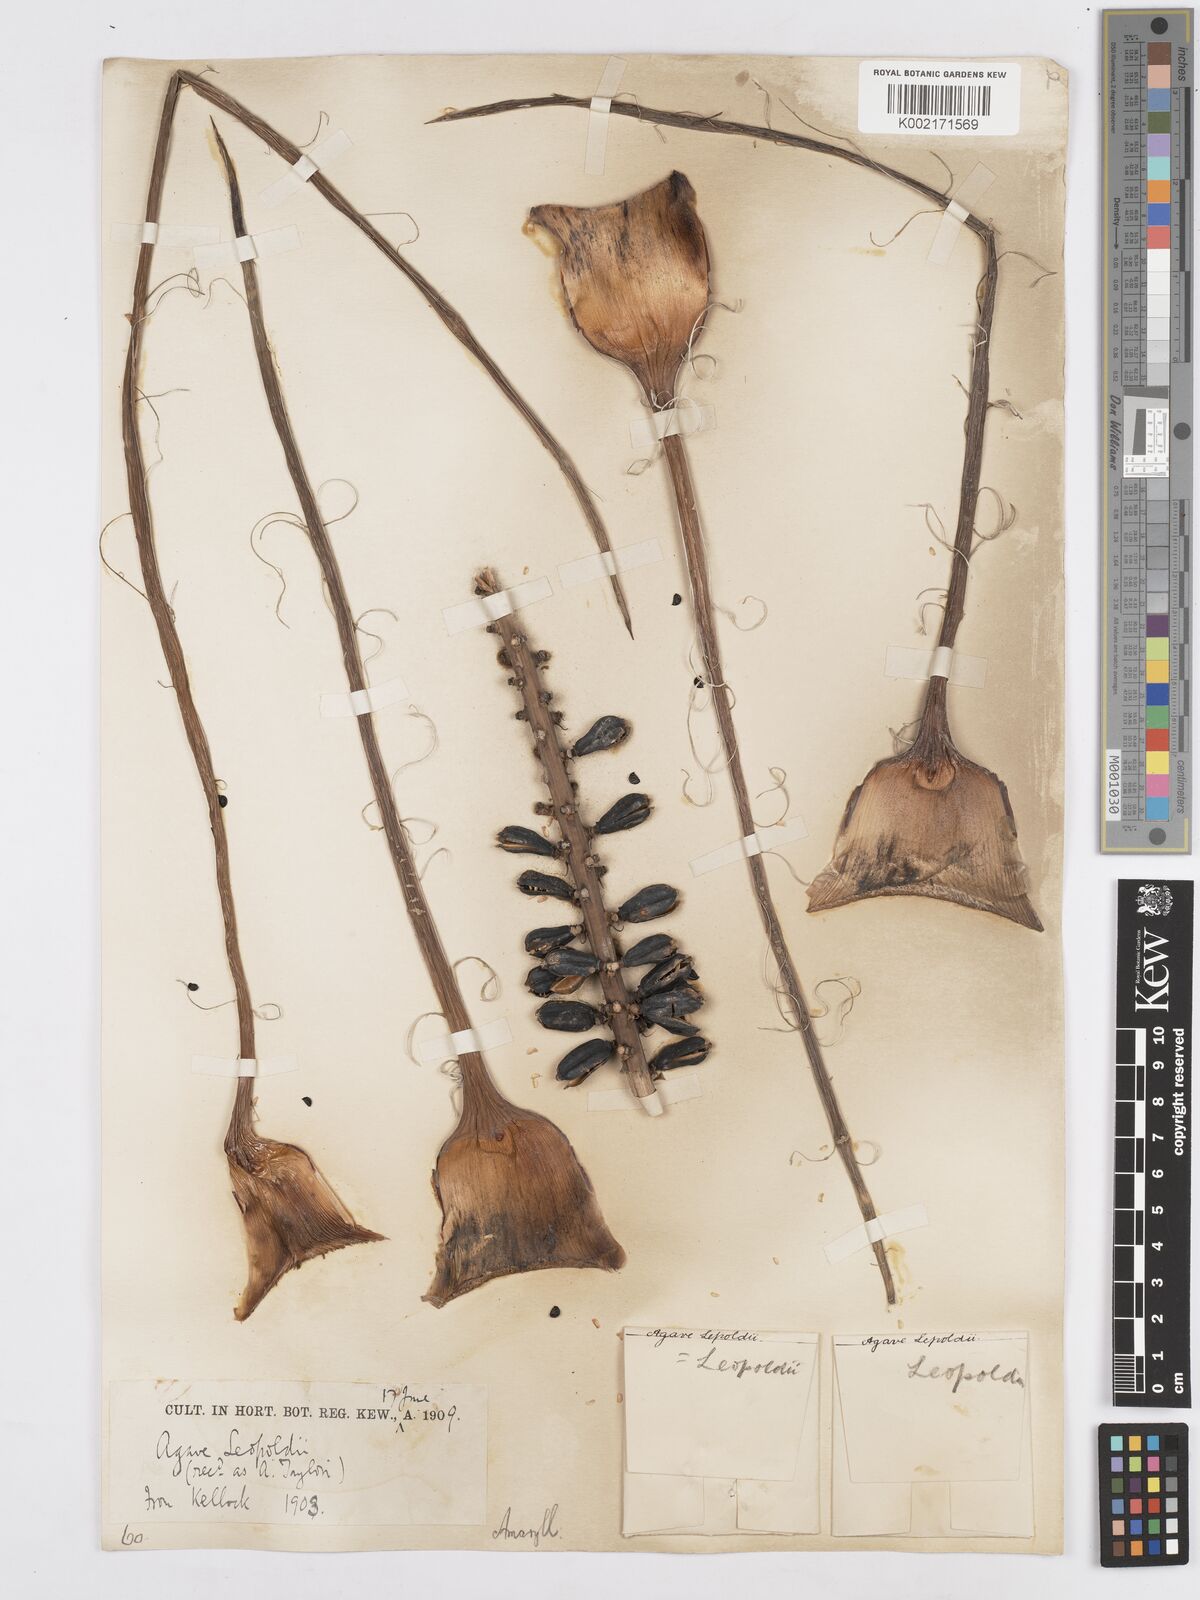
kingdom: Plantae
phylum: Tracheophyta
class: Liliopsida
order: Asparagales
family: Asparagaceae
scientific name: Asparagaceae
